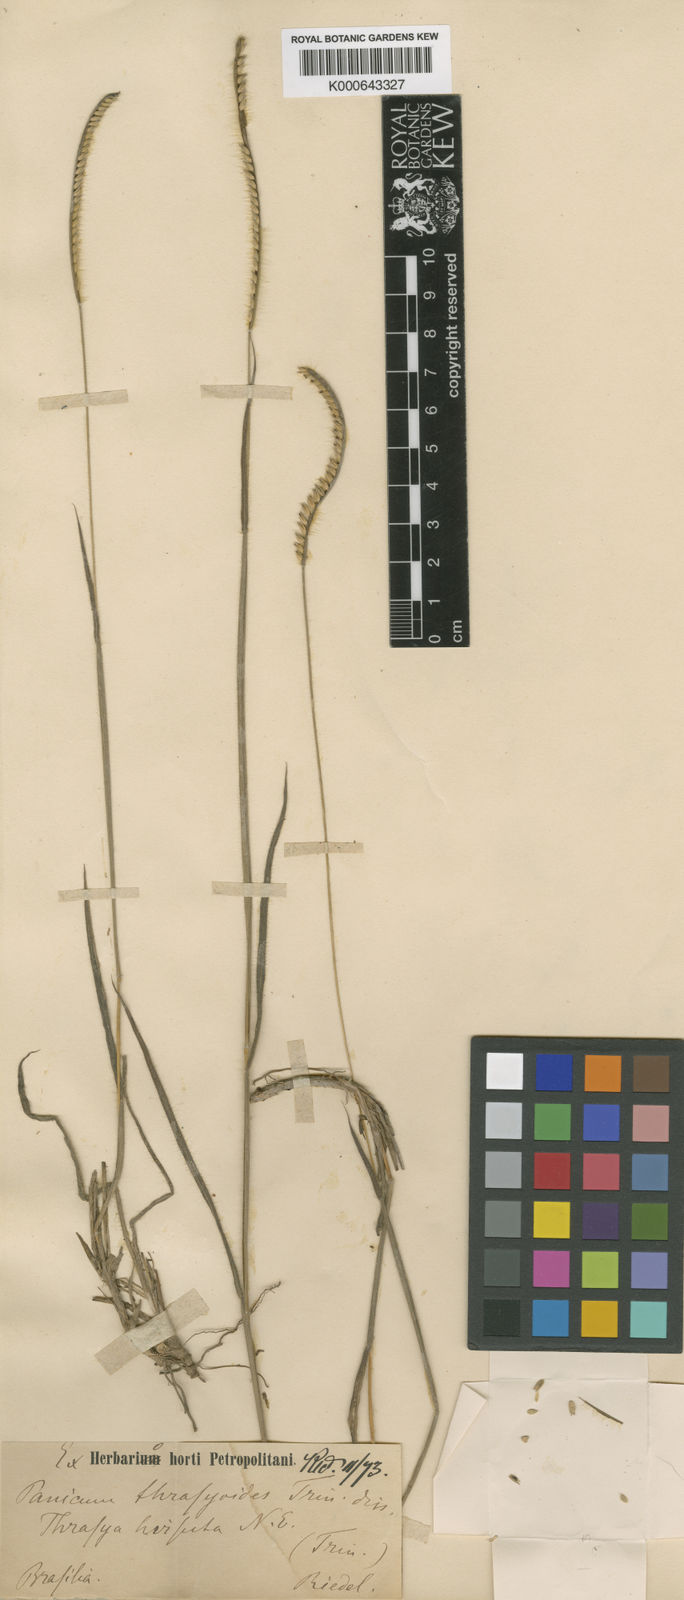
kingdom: Plantae
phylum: Tracheophyta
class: Liliopsida
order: Poales
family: Poaceae
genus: Paspalum
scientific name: Paspalum thrasyoides
